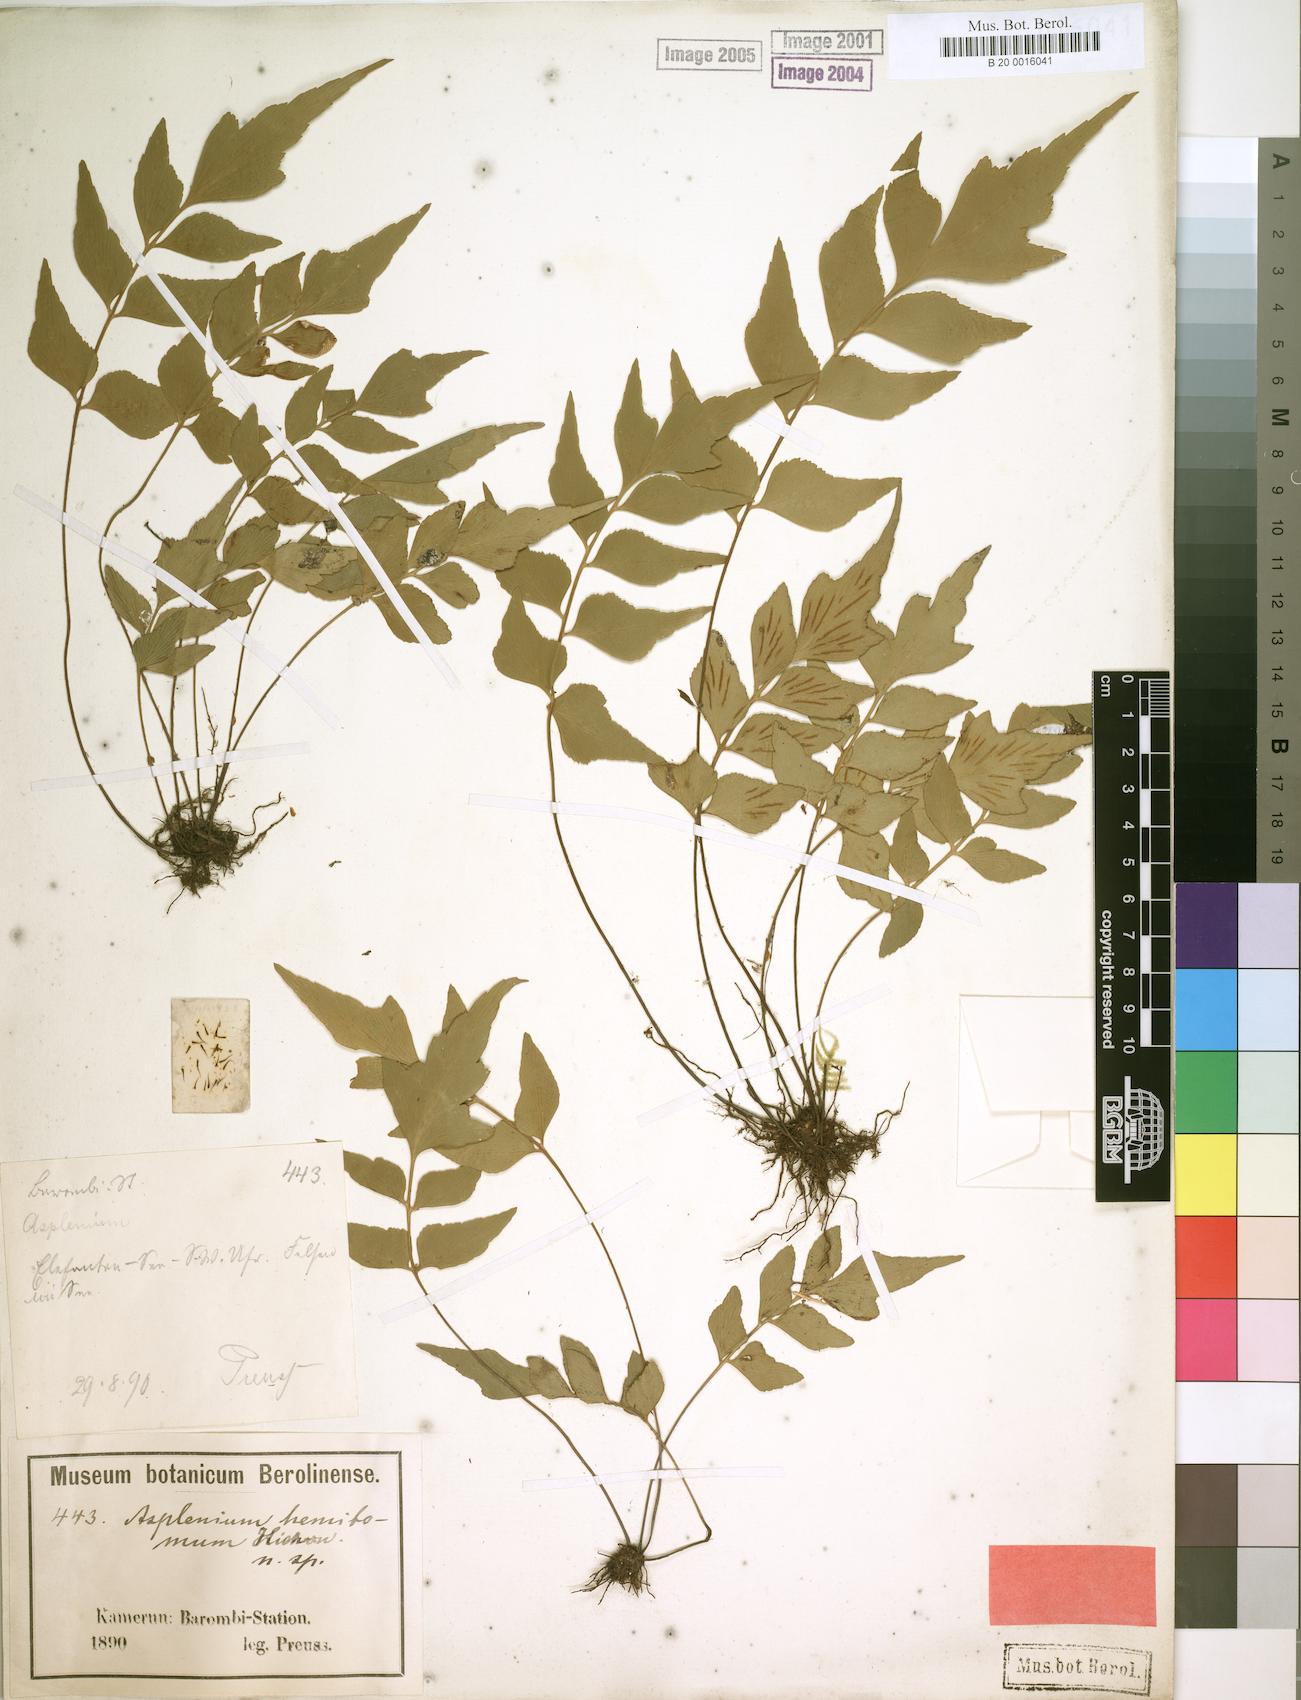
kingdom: Plantae
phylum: Tracheophyta
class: Polypodiopsida
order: Polypodiales
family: Aspleniaceae
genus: Asplenium
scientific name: Asplenium hemitomum
